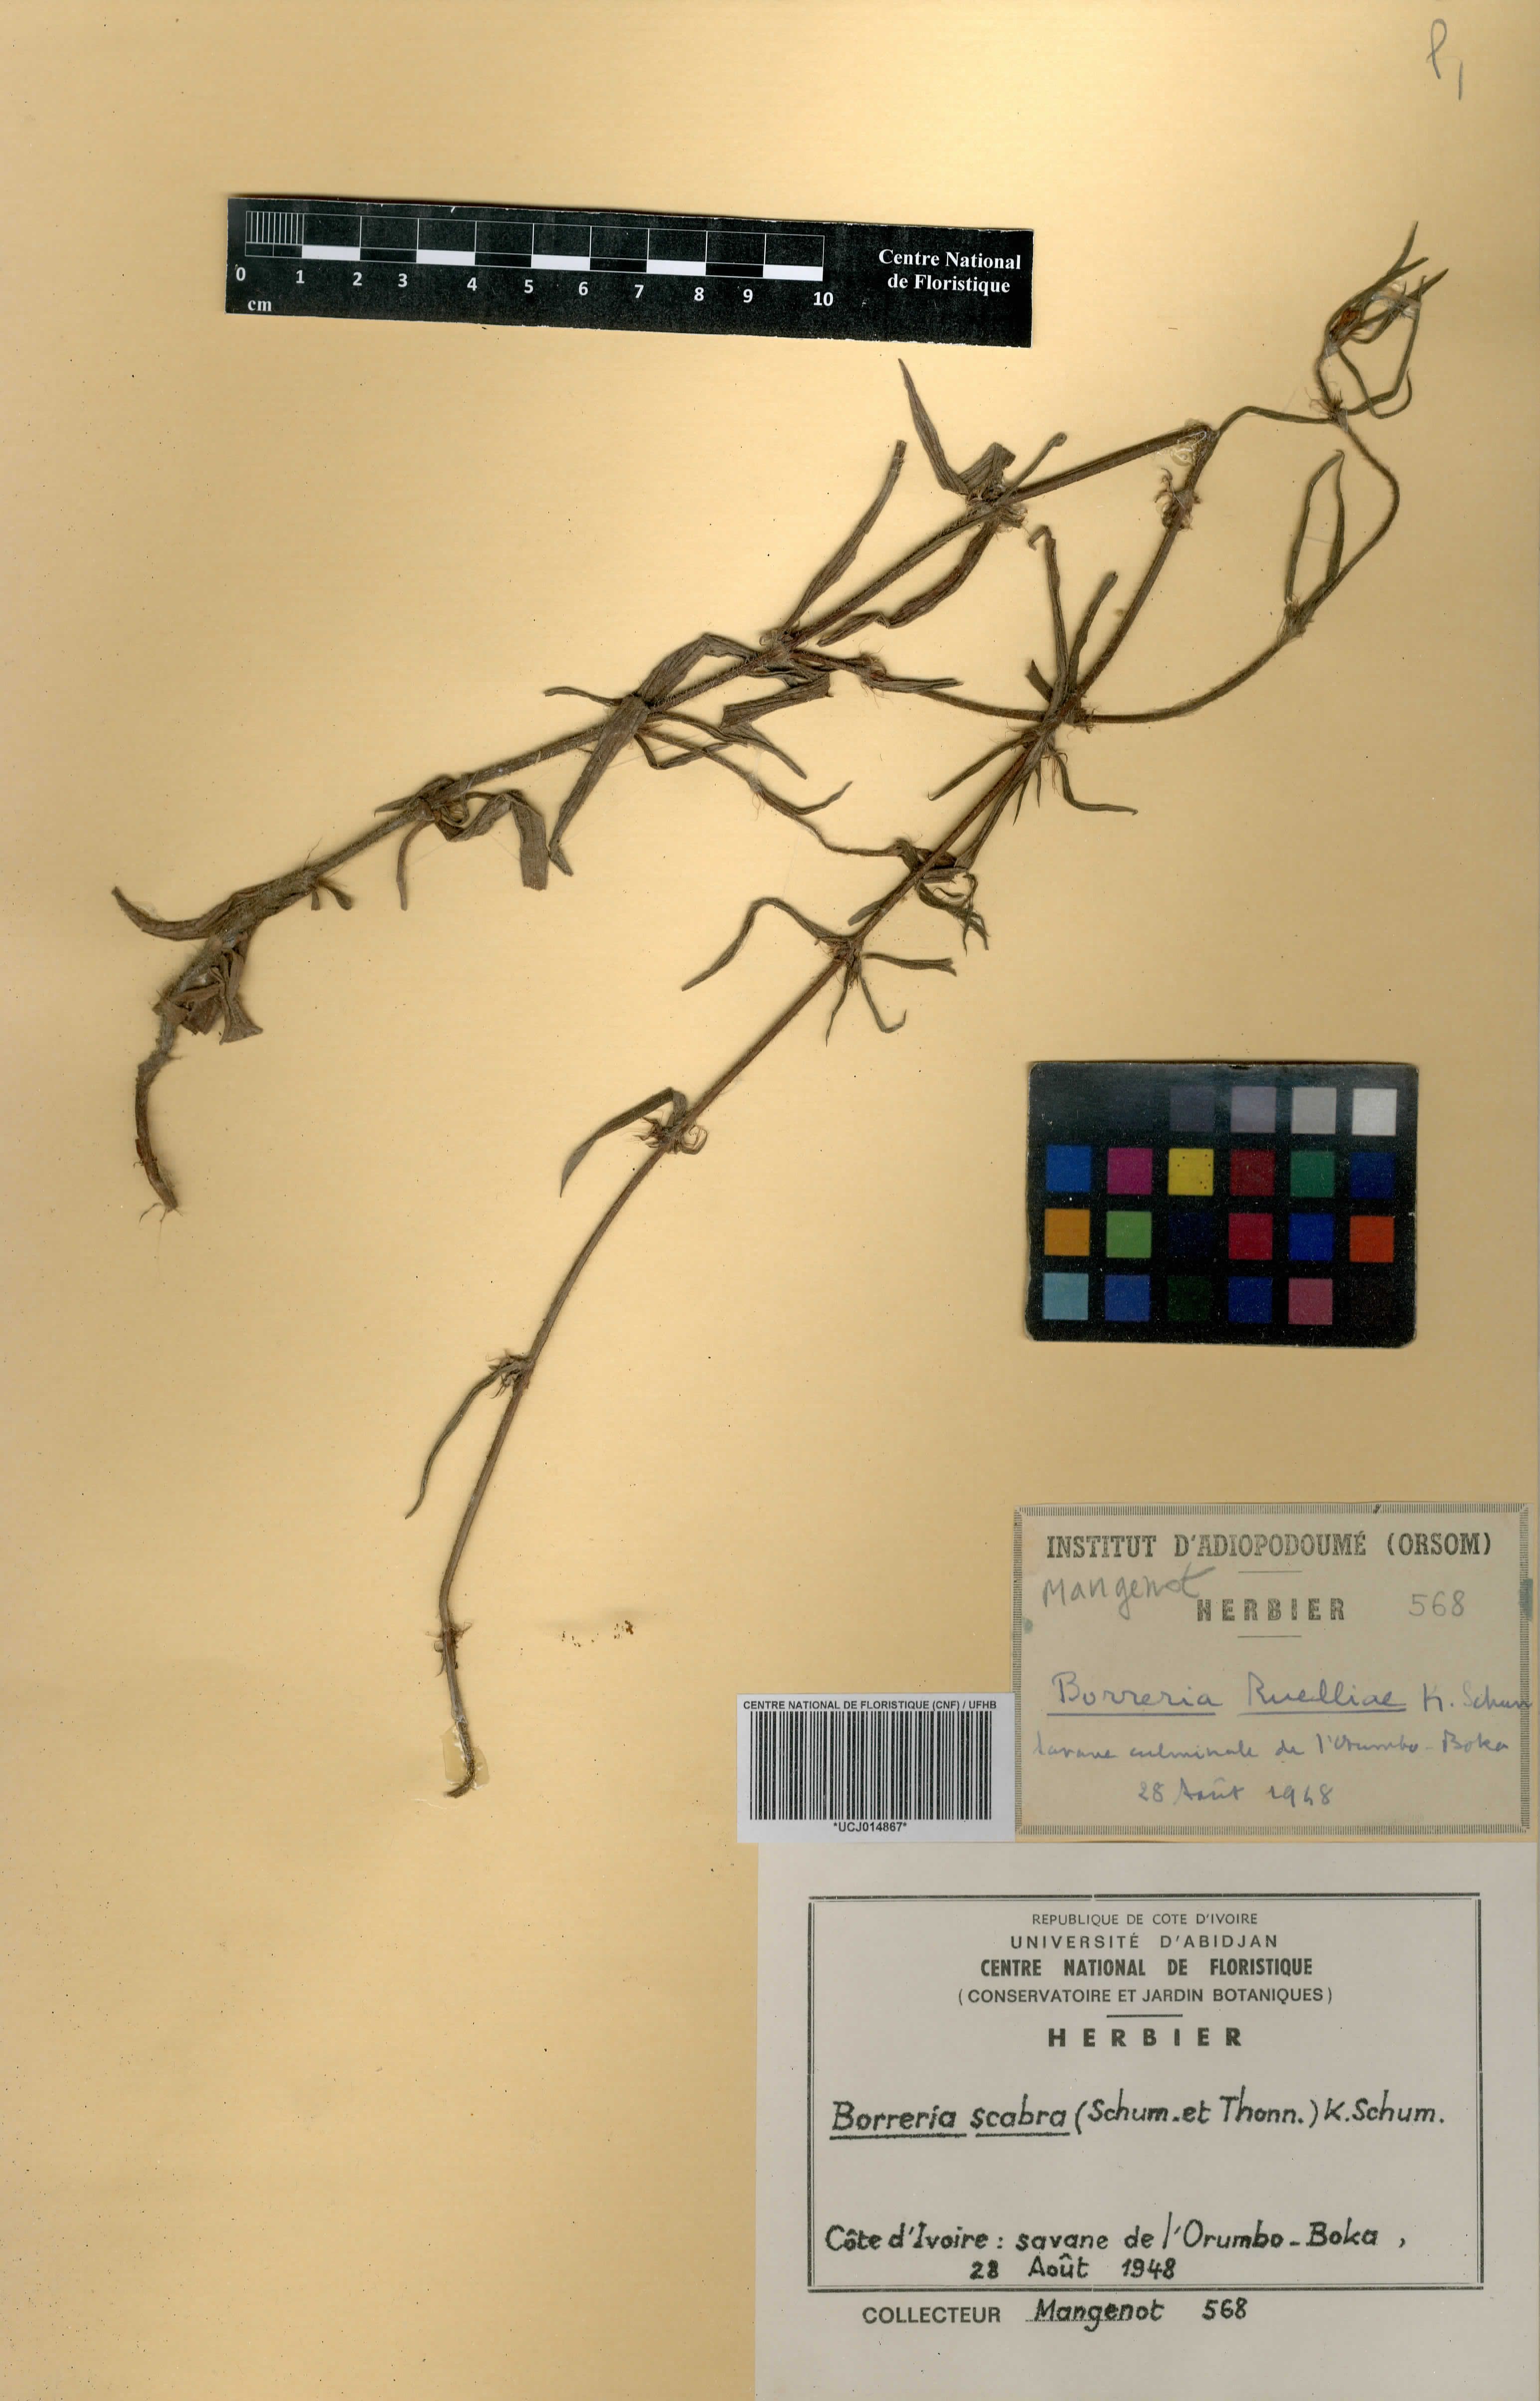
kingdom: Plantae
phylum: Tracheophyta
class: Magnoliopsida
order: Gentianales
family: Rubiaceae
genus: Spermacoce
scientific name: Spermacoce ruelliae
